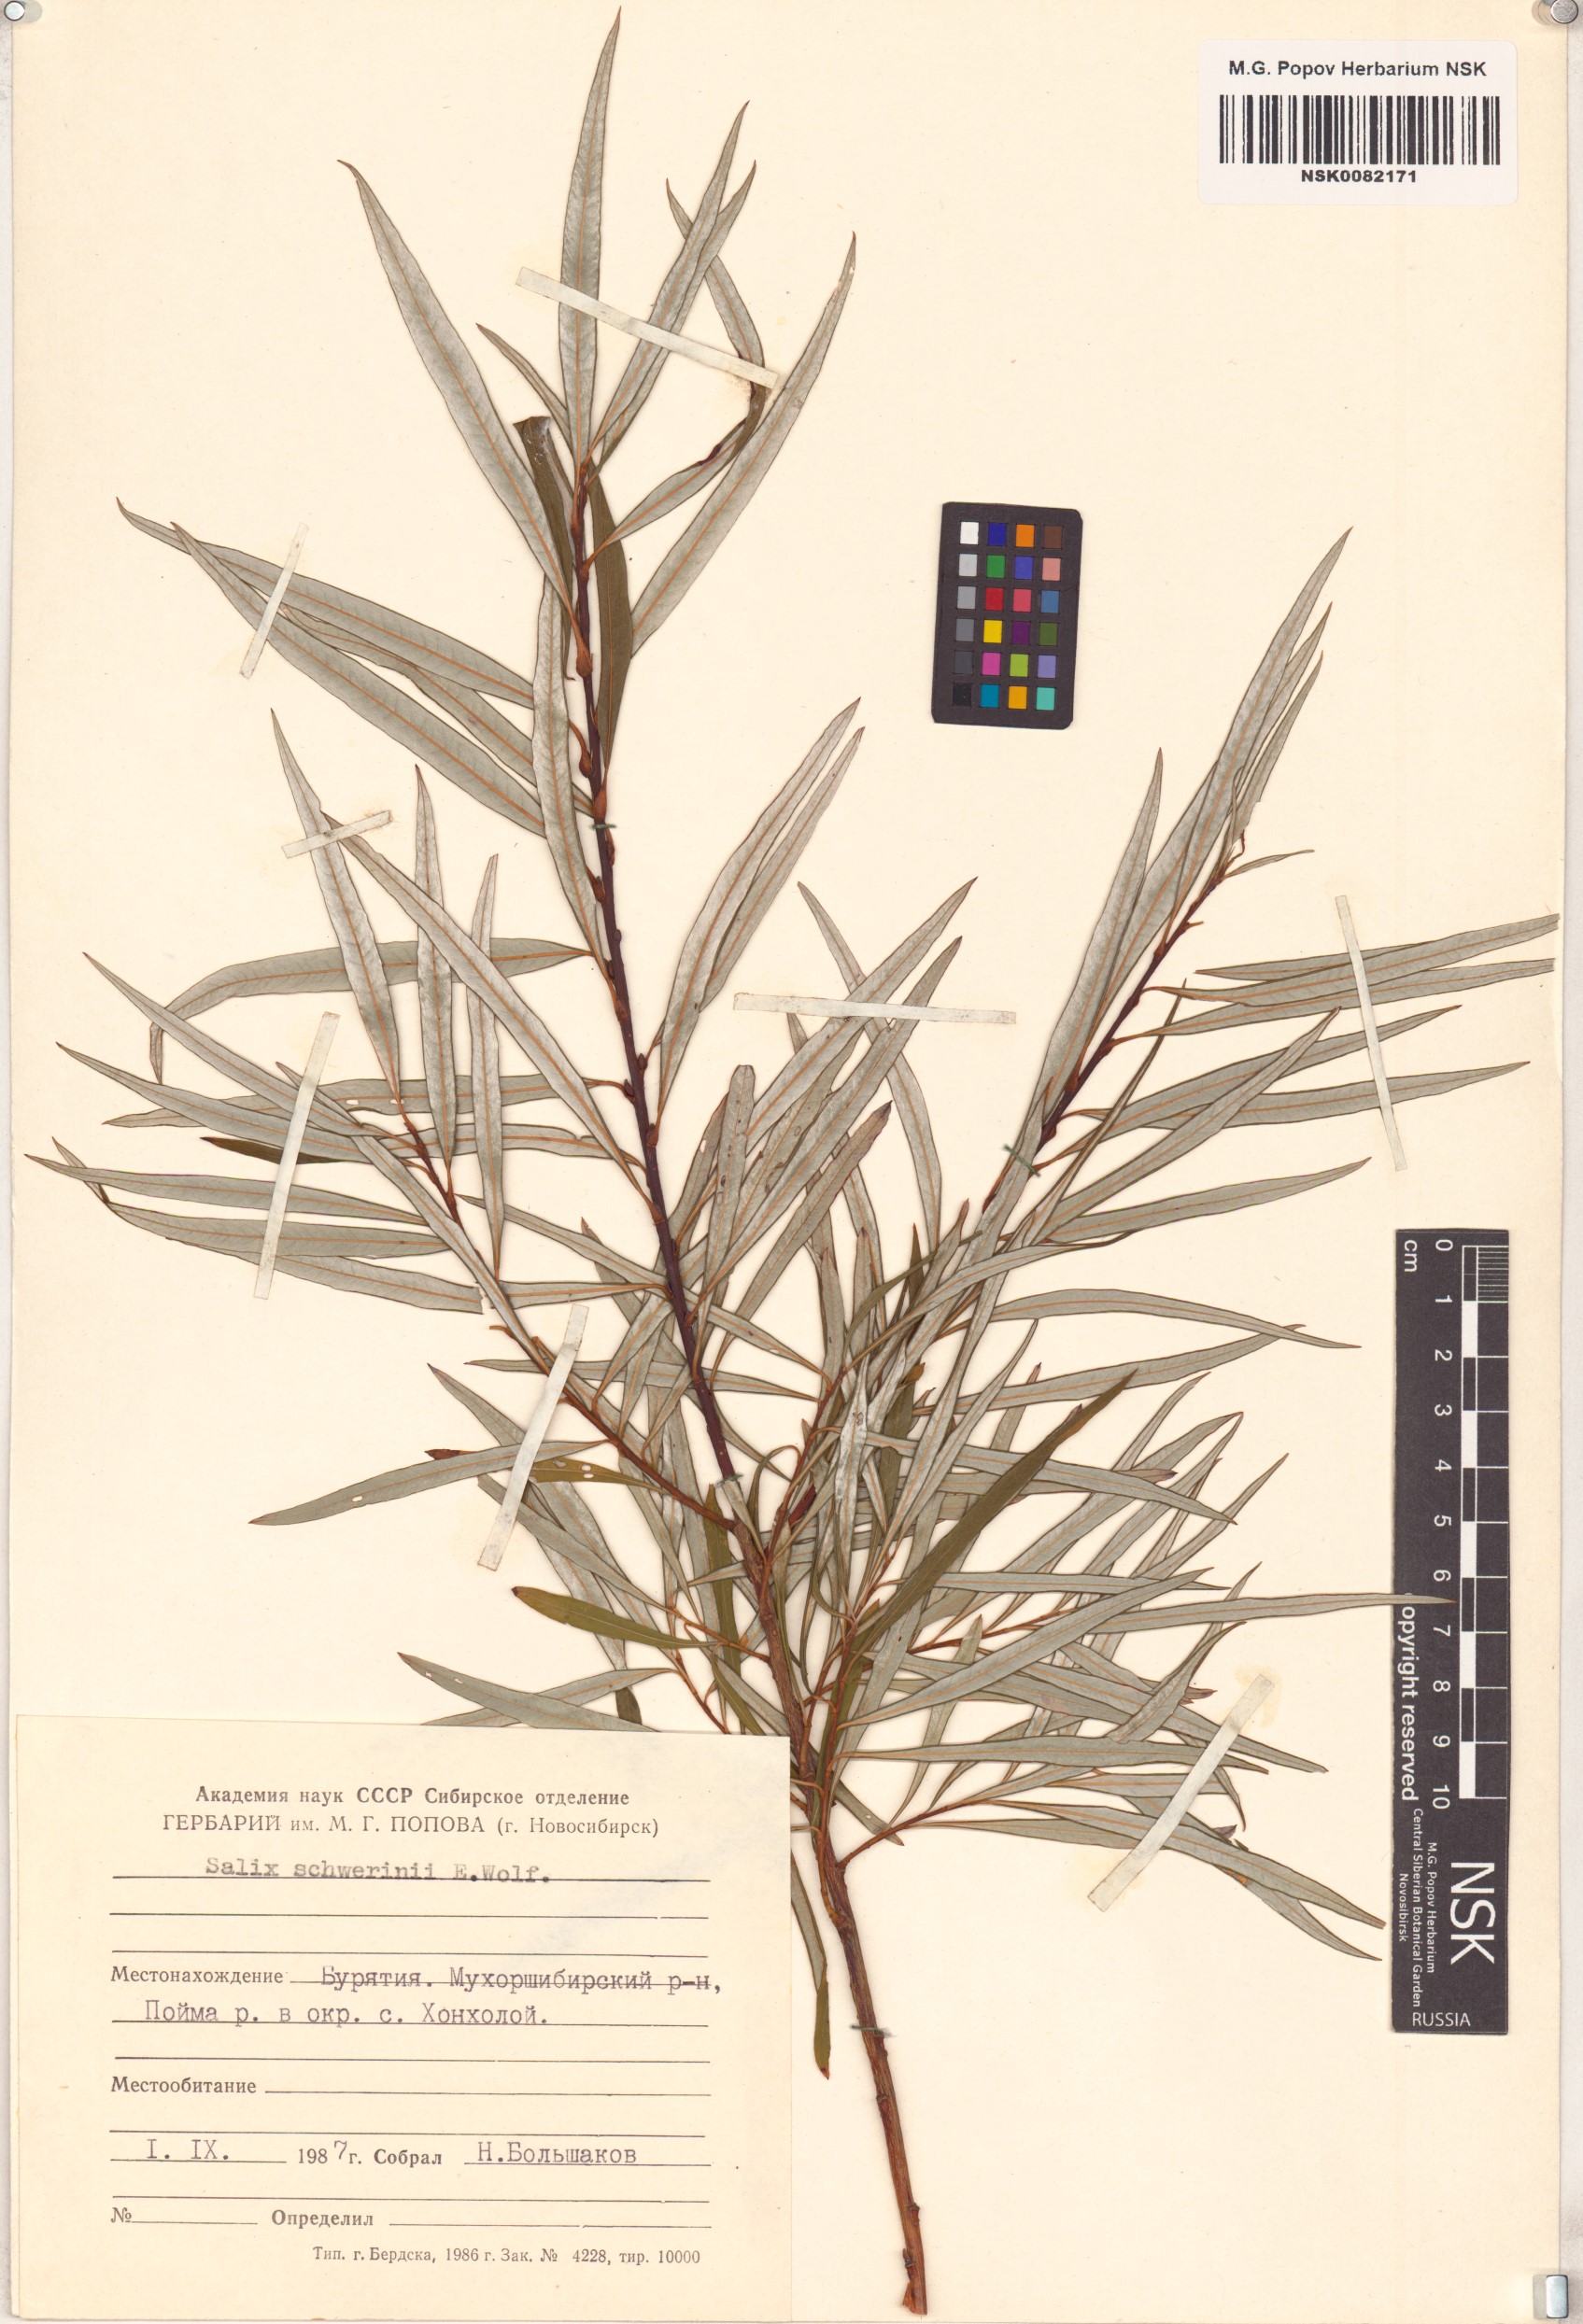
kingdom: Plantae
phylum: Tracheophyta
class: Magnoliopsida
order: Malpighiales
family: Salicaceae
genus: Salix
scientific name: Salix schwerinii
